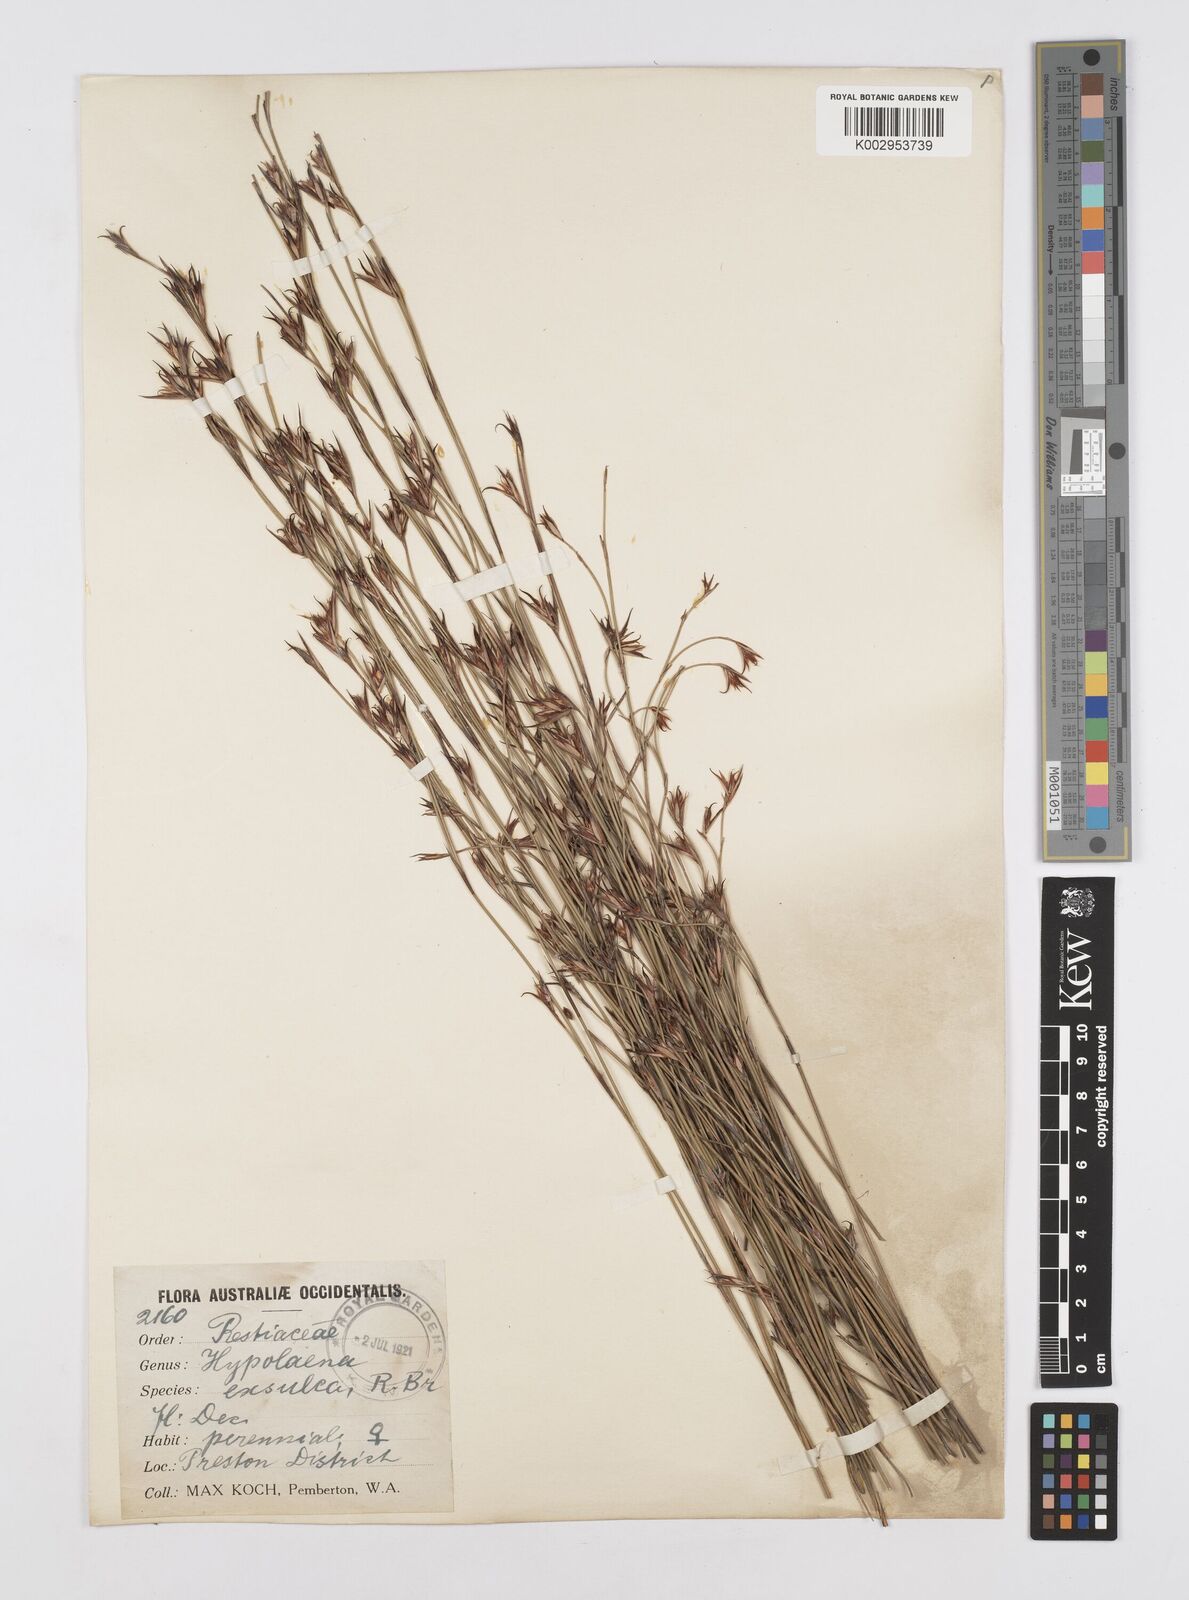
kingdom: Plantae
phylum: Tracheophyta
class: Liliopsida
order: Poales
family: Restionaceae
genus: Hypolaena
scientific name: Hypolaena exsulca
